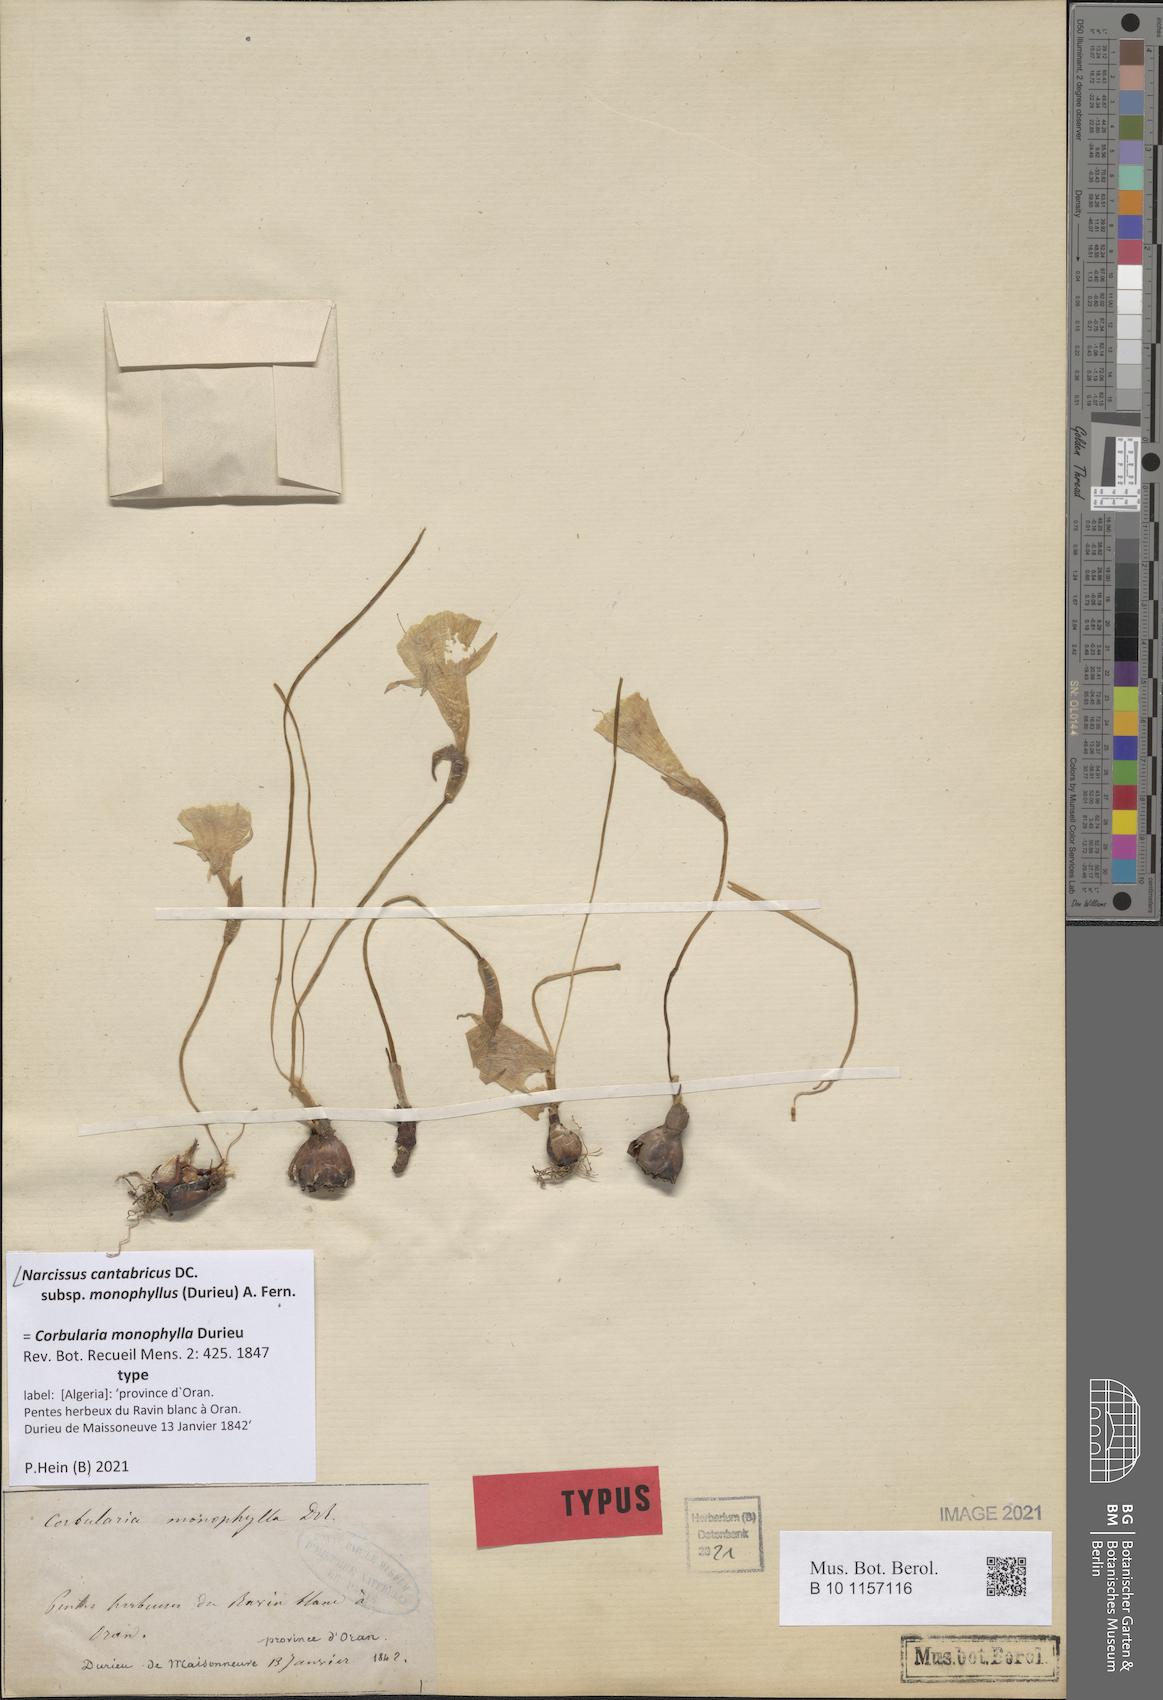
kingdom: Plantae
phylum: Tracheophyta
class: Liliopsida
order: Asparagales
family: Amaryllidaceae
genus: Narcissus
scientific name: Narcissus cantabricus
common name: White hoop petticoat daffodil
